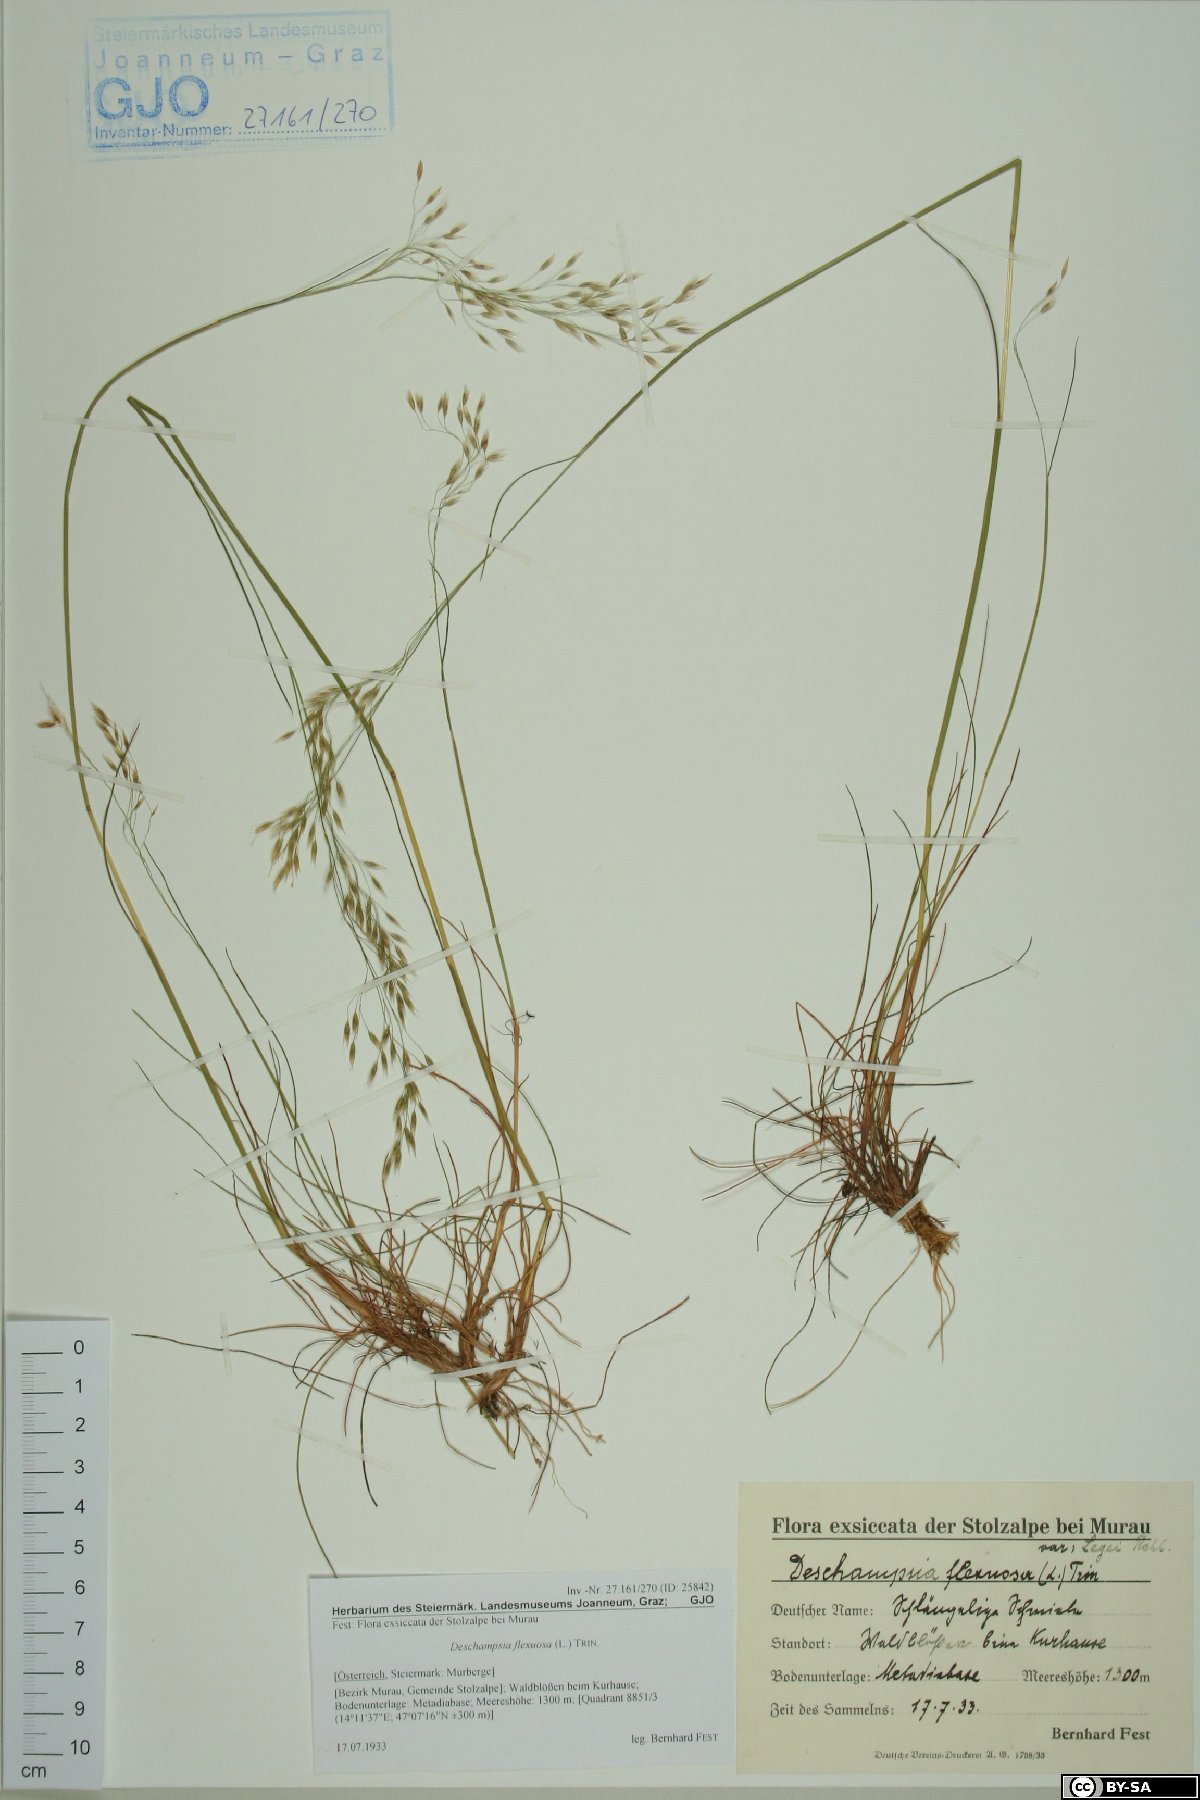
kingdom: Plantae
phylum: Tracheophyta
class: Liliopsida
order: Poales
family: Poaceae
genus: Avenella
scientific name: Avenella flexuosa
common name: Wavy hairgrass
